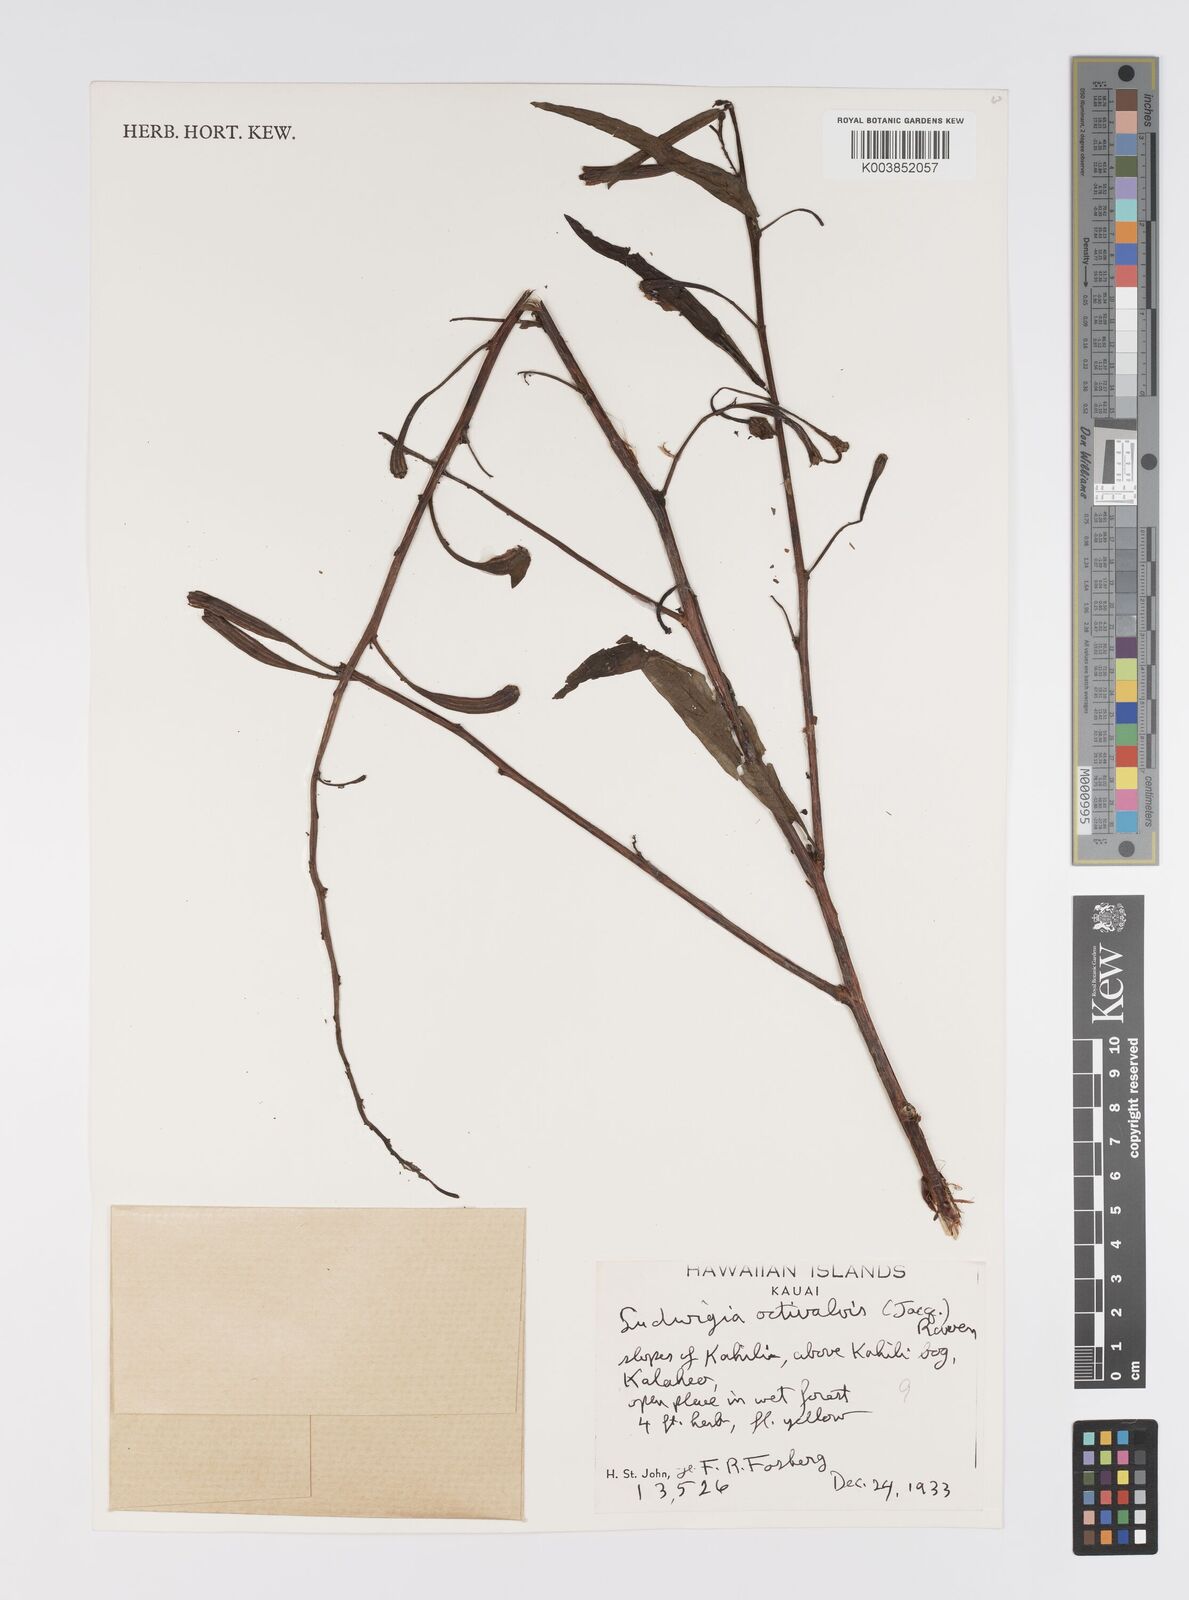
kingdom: Plantae
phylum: Tracheophyta
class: Magnoliopsida
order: Myrtales
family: Onagraceae
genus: Ludwigia
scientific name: Ludwigia octovalvis
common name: Water-primrose
